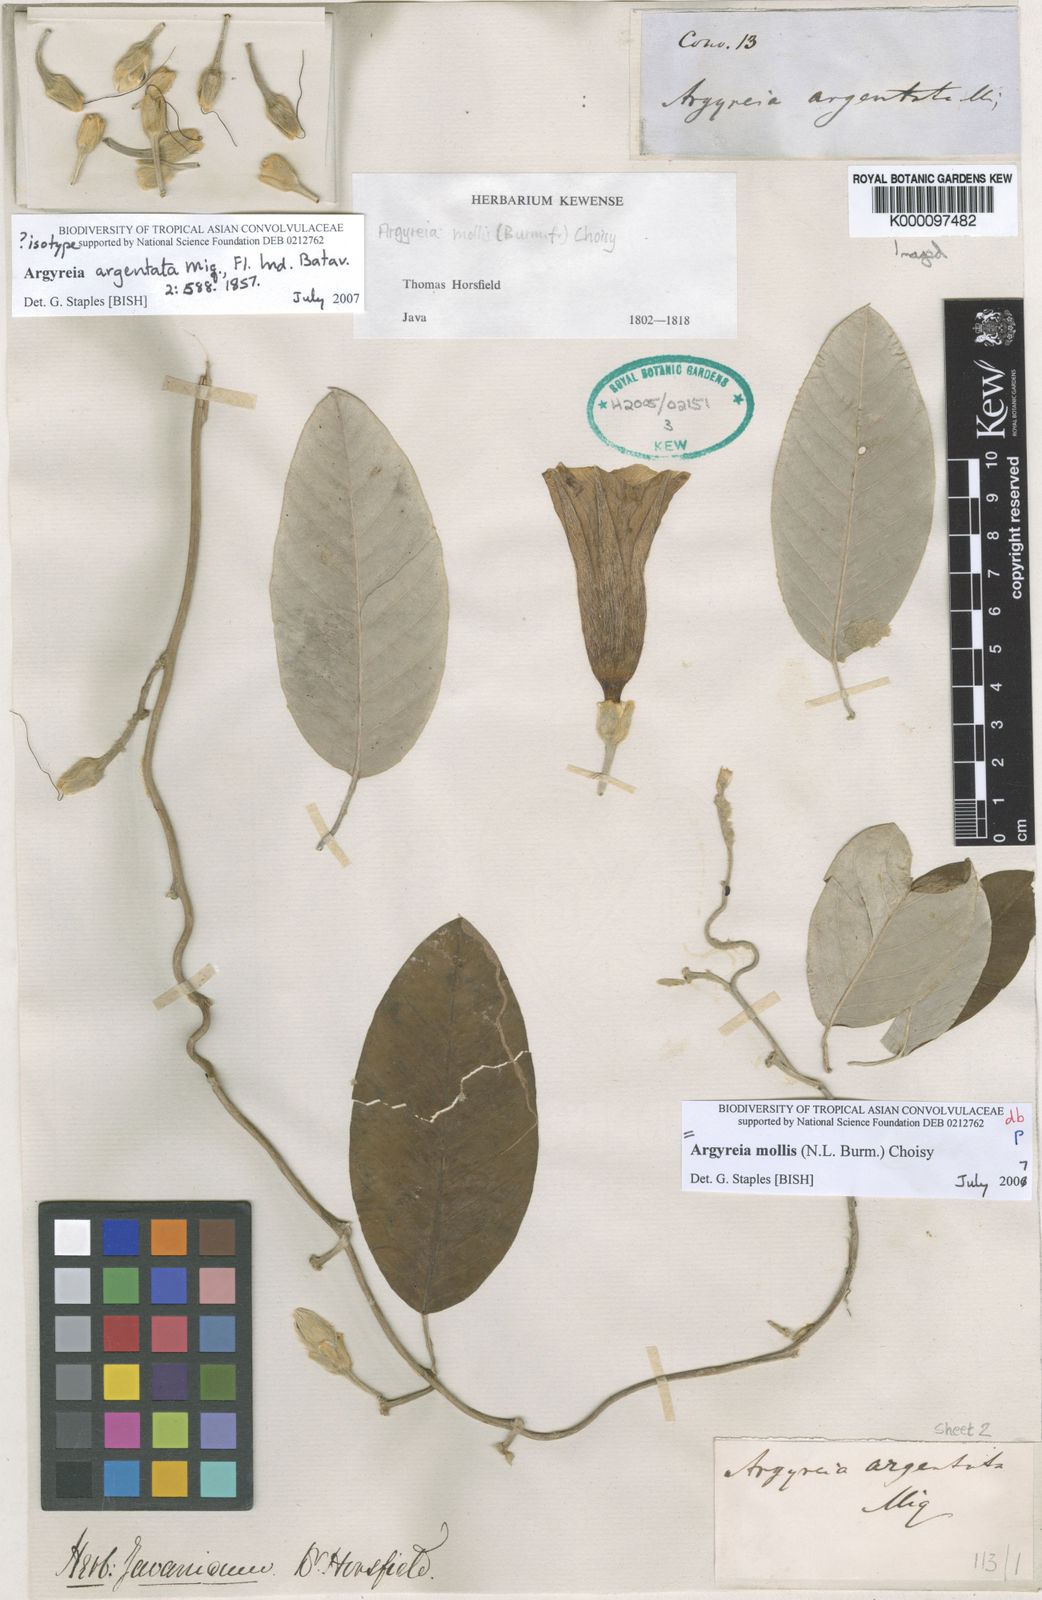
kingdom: Plantae
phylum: Tracheophyta
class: Magnoliopsida
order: Solanales
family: Convolvulaceae
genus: Argyreia
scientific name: Argyreia mollis
